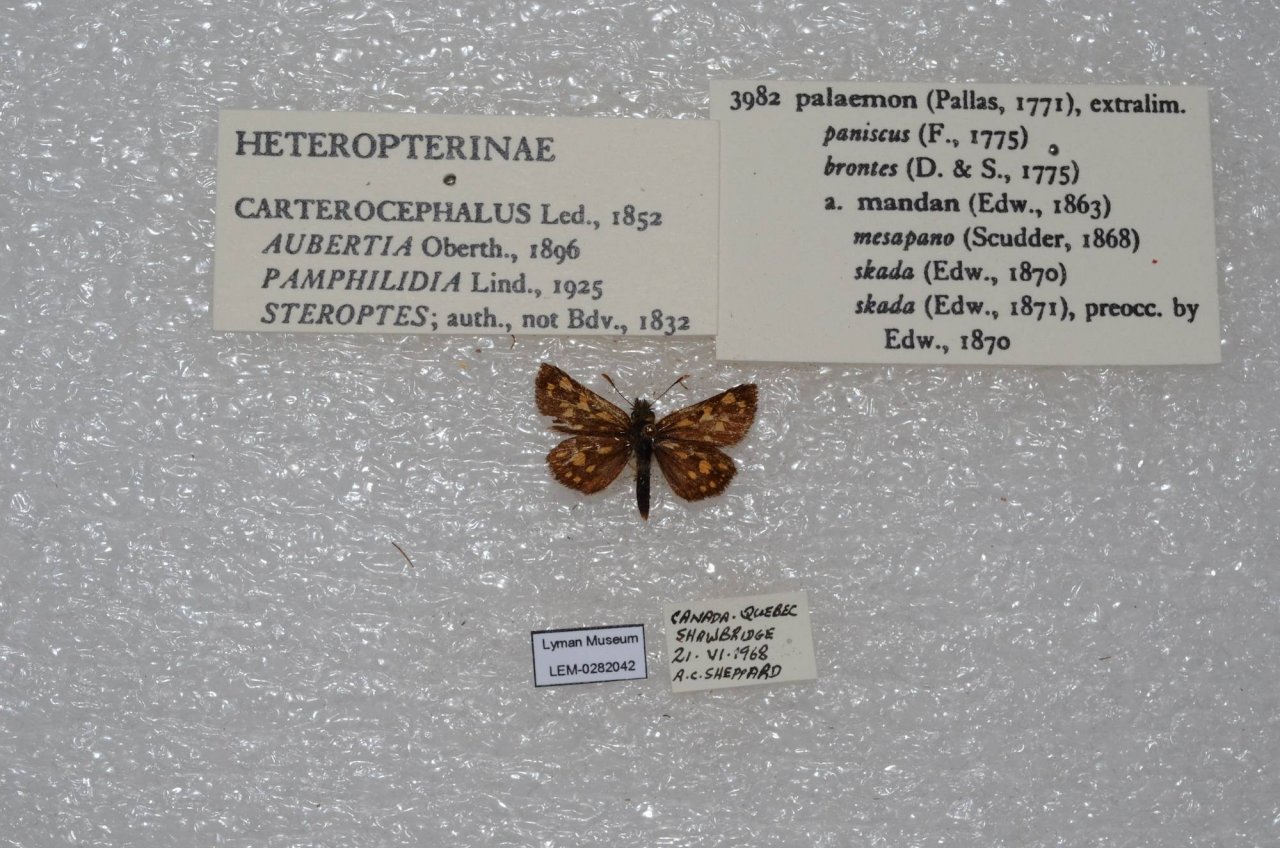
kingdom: Animalia
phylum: Arthropoda
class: Insecta
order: Lepidoptera
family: Hesperiidae
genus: Carterocephalus
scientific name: Carterocephalus palaemon
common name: Chequered Skipper
